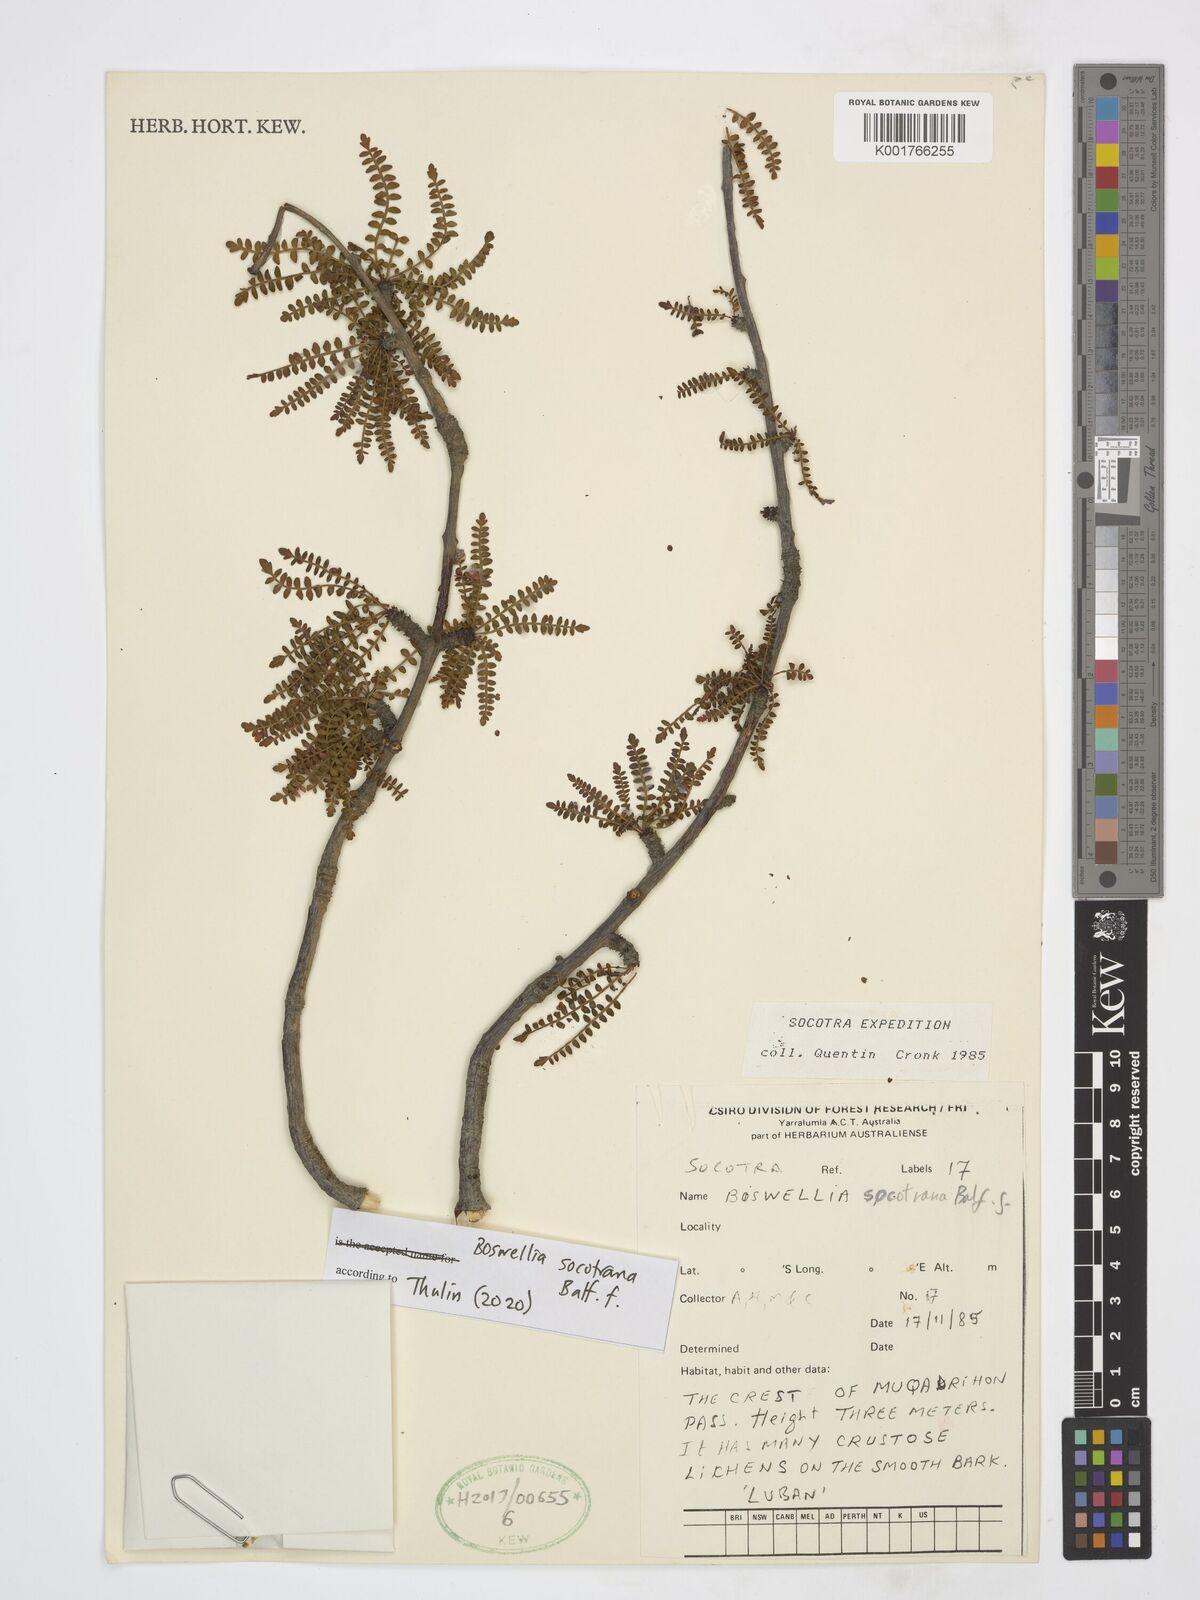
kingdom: Plantae
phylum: Tracheophyta
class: Magnoliopsida
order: Sapindales
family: Burseraceae
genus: Boswellia
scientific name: Boswellia socotrana
